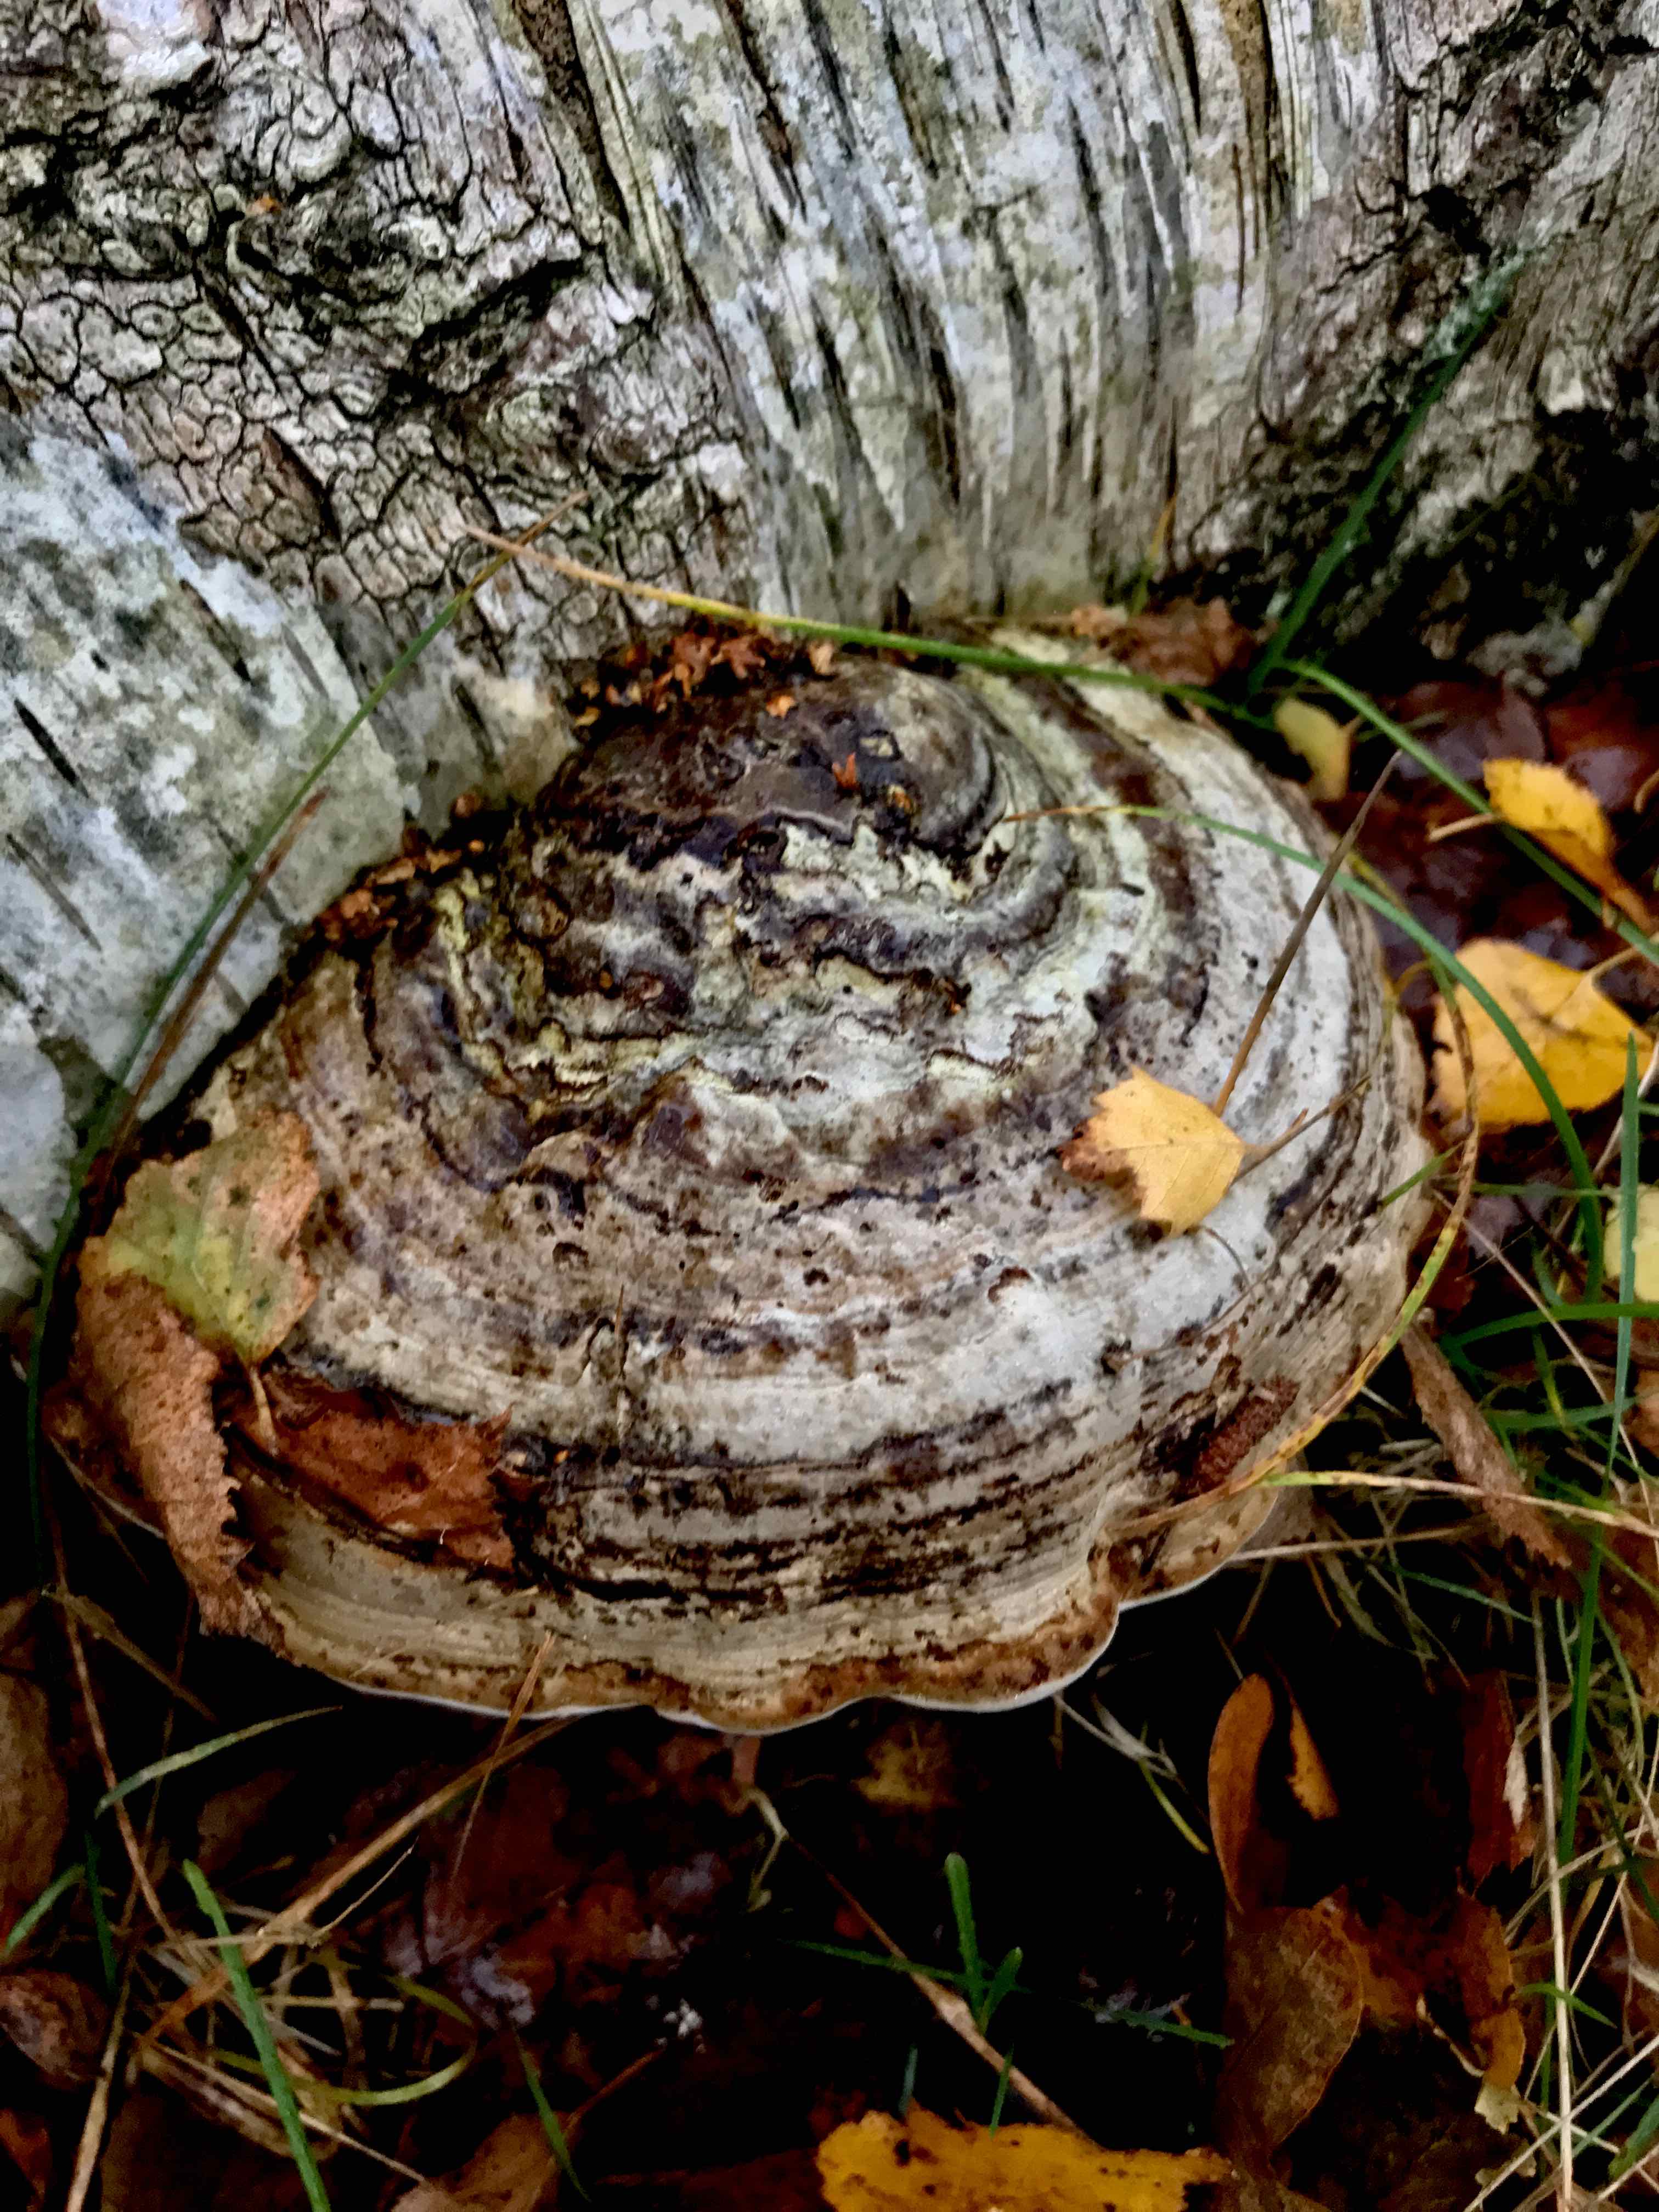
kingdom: Fungi
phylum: Basidiomycota
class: Agaricomycetes
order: Polyporales
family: Polyporaceae
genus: Fomes
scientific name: Fomes fomentarius
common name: tøndersvamp
